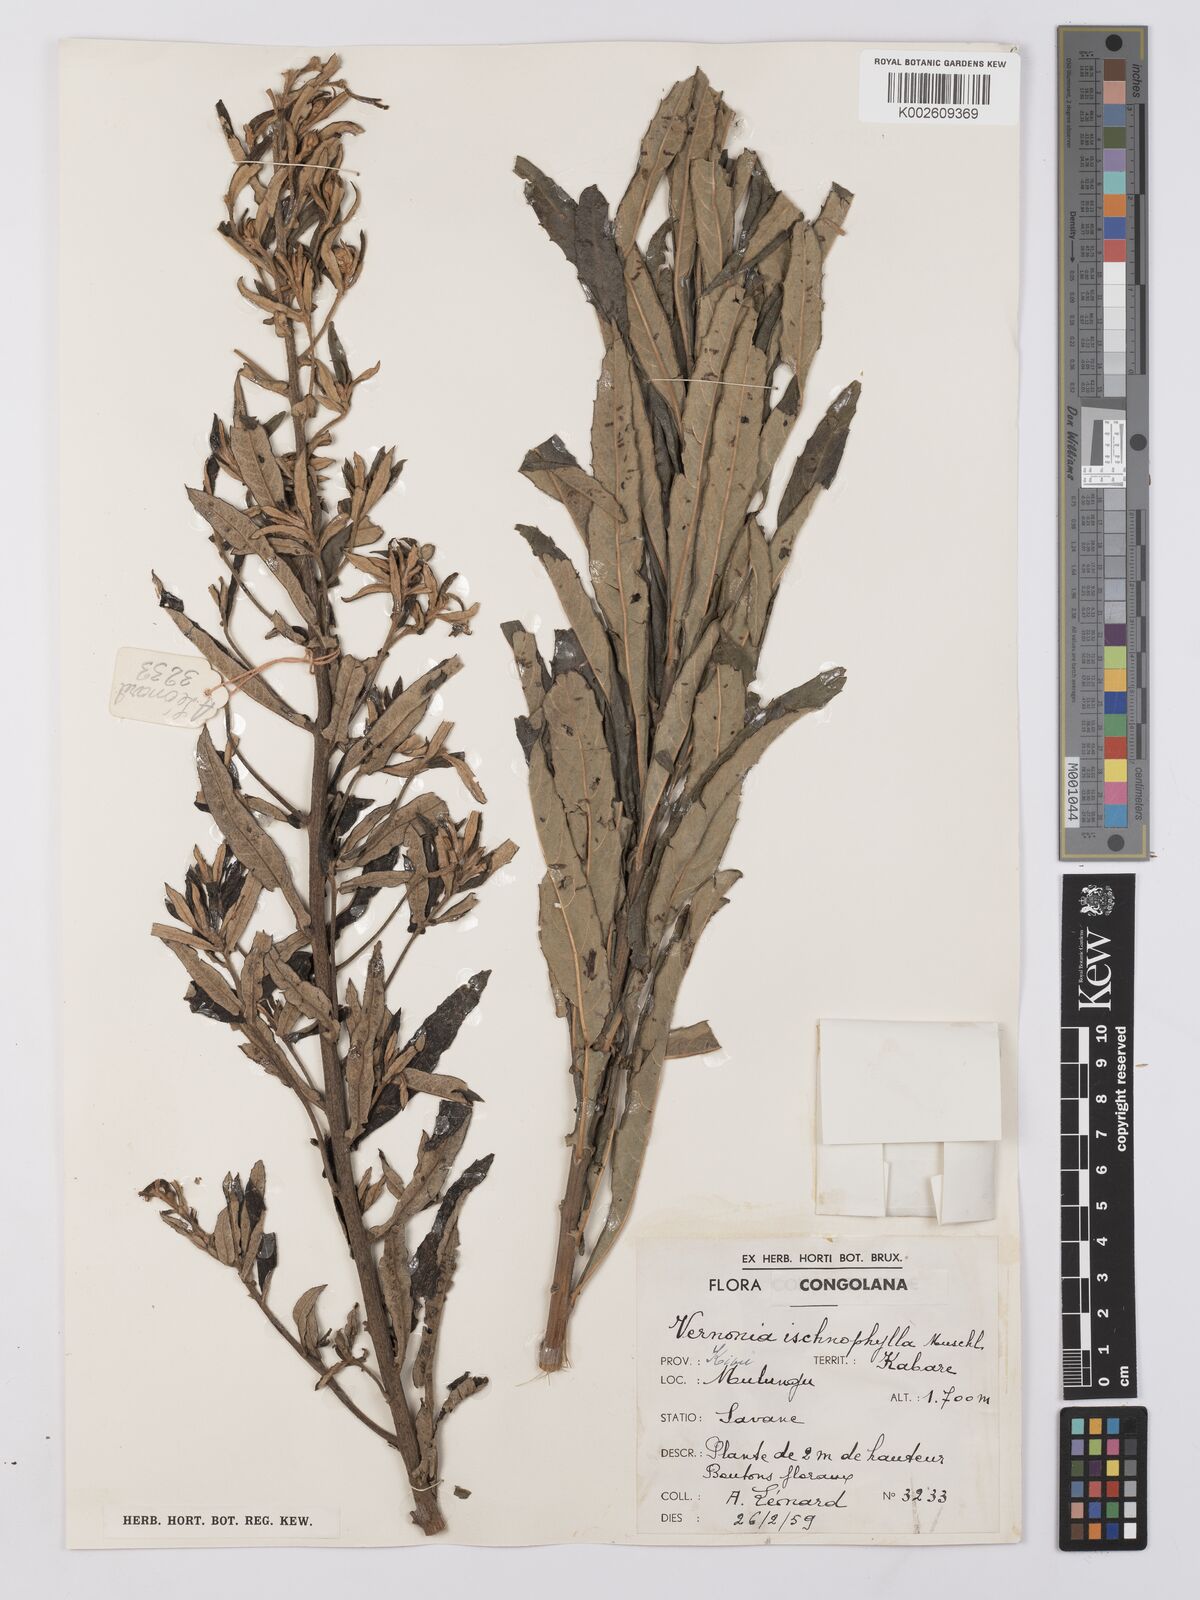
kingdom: Plantae
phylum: Tracheophyta
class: Magnoliopsida
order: Asterales
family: Asteraceae
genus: Vernonia
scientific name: Vernonia ischnophylla
